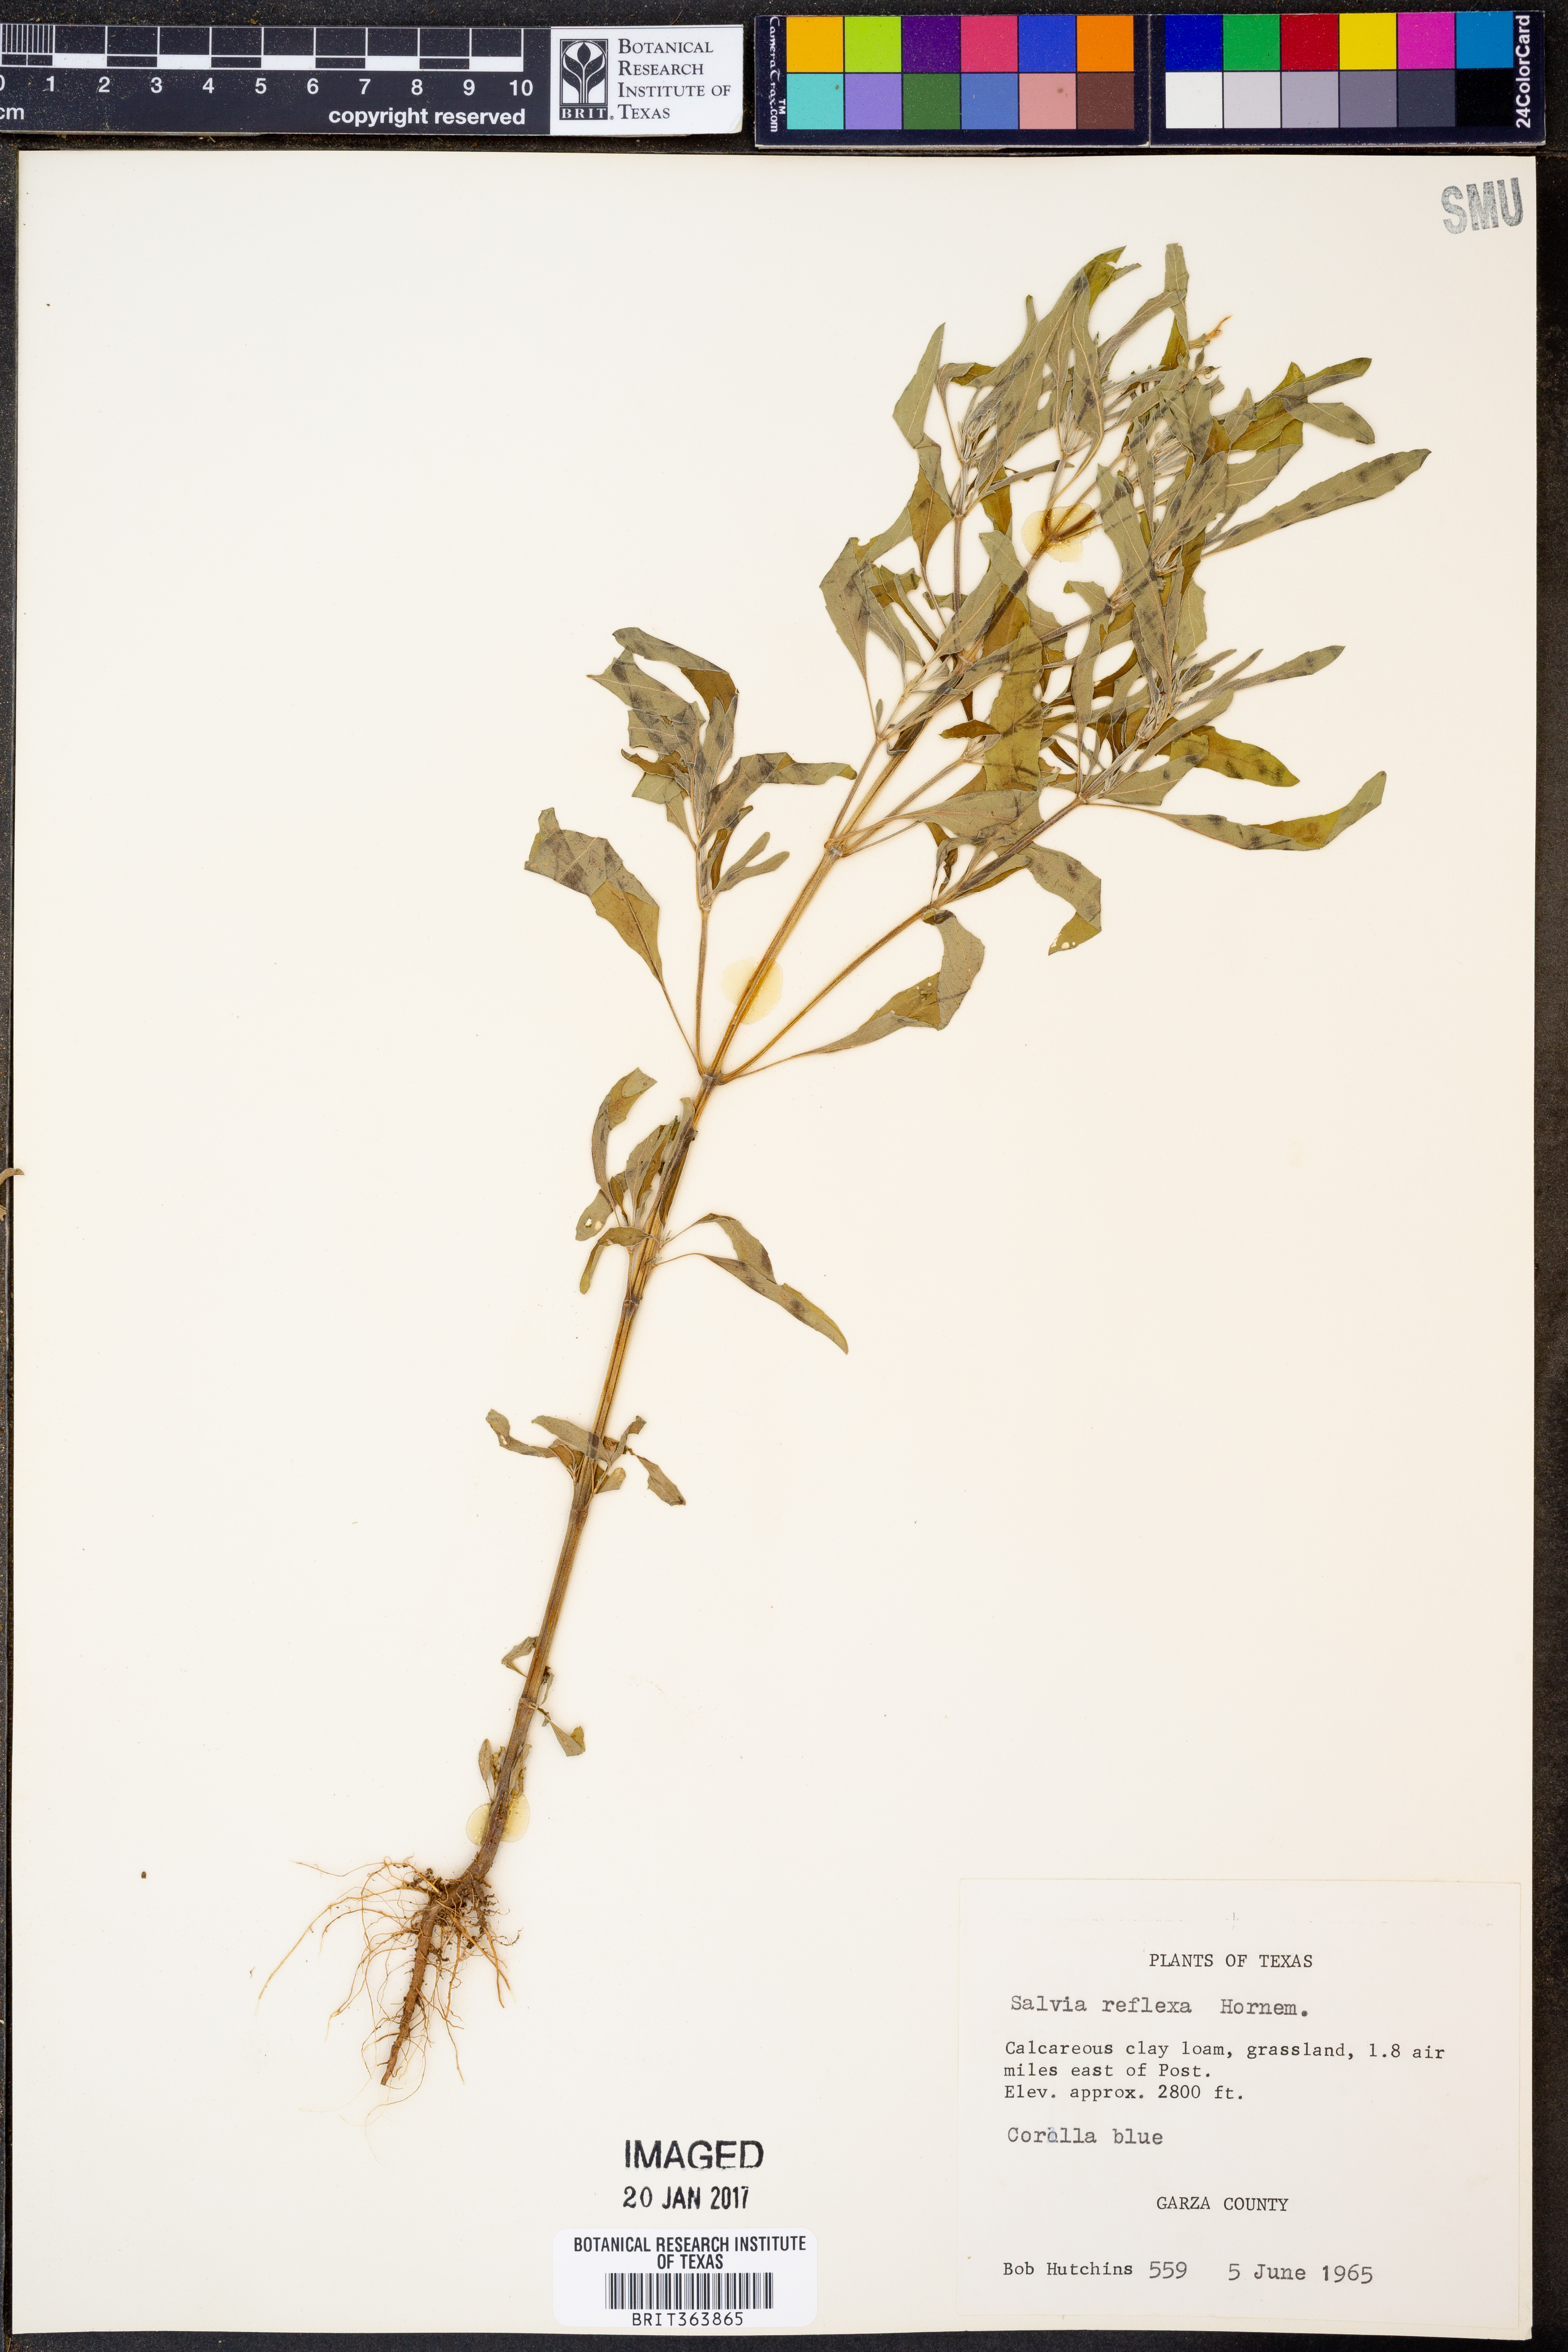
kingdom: Plantae
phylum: Tracheophyta
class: Magnoliopsida
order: Lamiales
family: Lamiaceae
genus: Salvia
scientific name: Salvia reflexa
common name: Mintweed
